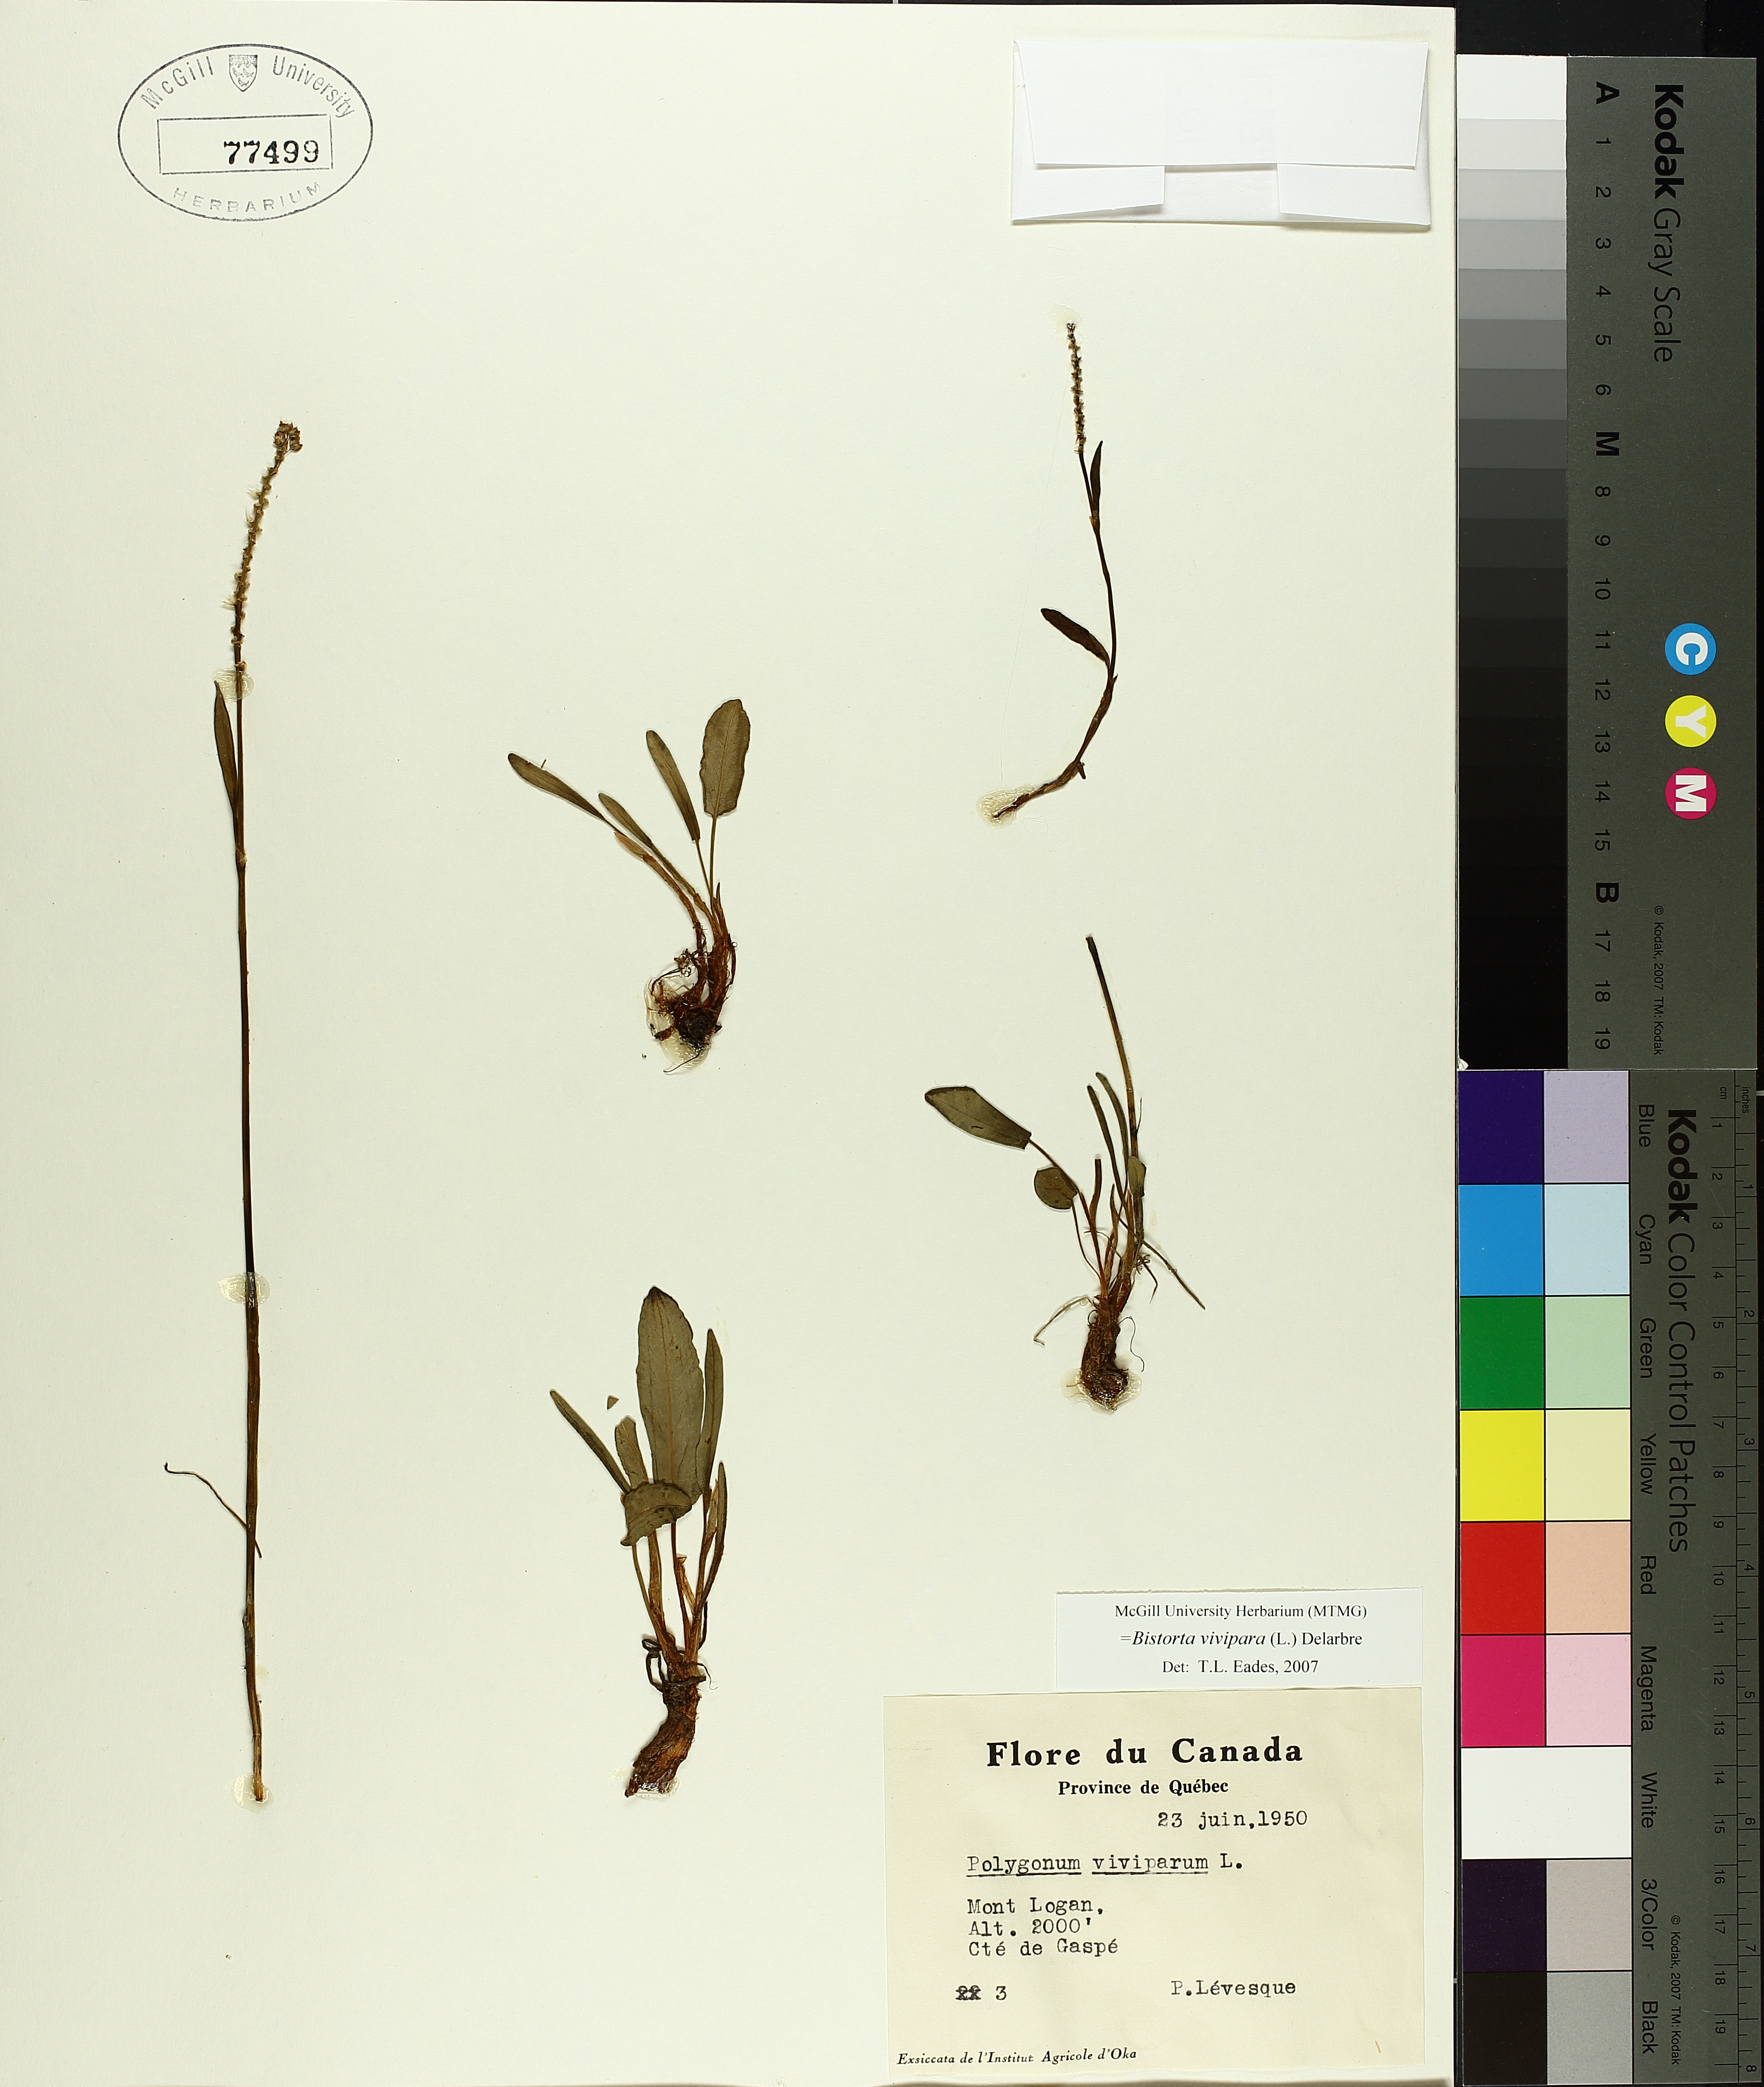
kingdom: Plantae
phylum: Tracheophyta
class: Magnoliopsida
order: Caryophyllales
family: Polygonaceae
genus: Bistorta
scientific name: Bistorta vivipara
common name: Alpine bistort
